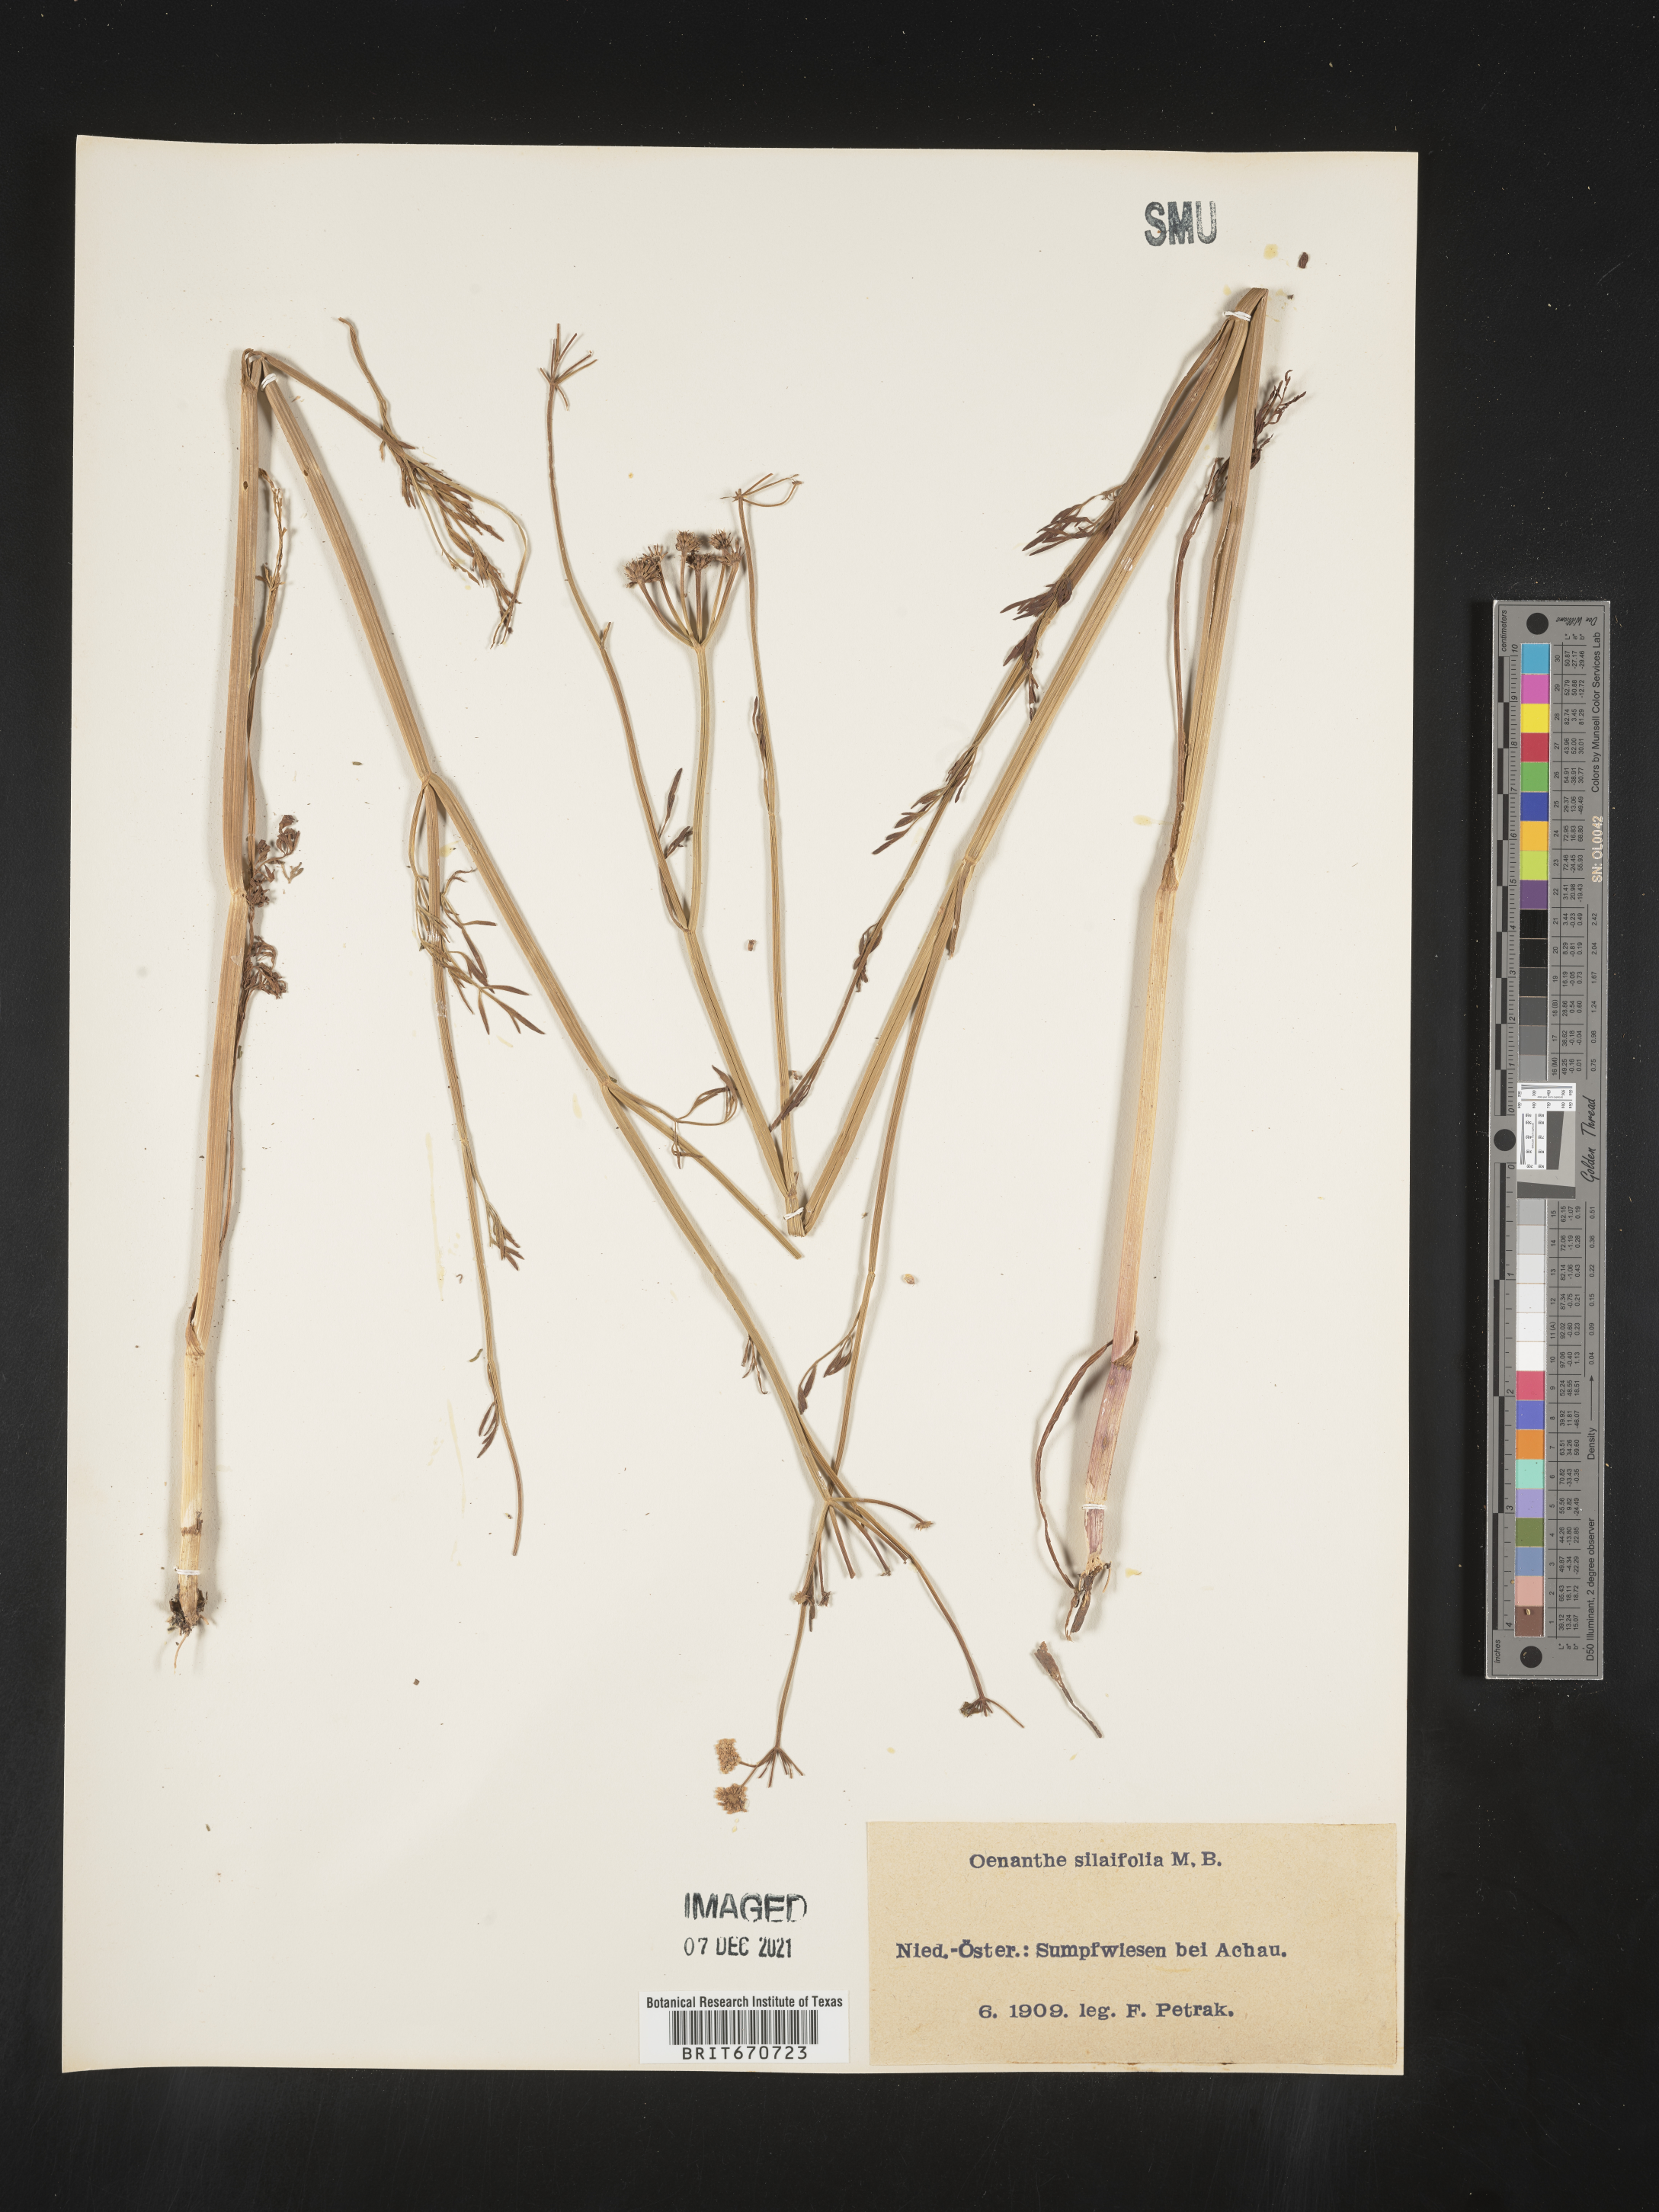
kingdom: Plantae
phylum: Tracheophyta
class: Magnoliopsida
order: Apiales
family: Apiaceae
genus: Oenanthe
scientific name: Oenanthe
